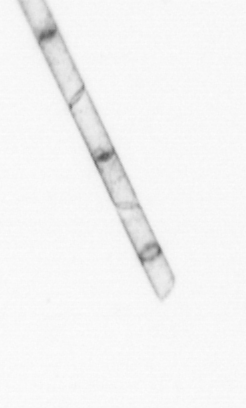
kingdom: Chromista
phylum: Ochrophyta
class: Bacillariophyceae
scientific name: Bacillariophyceae
